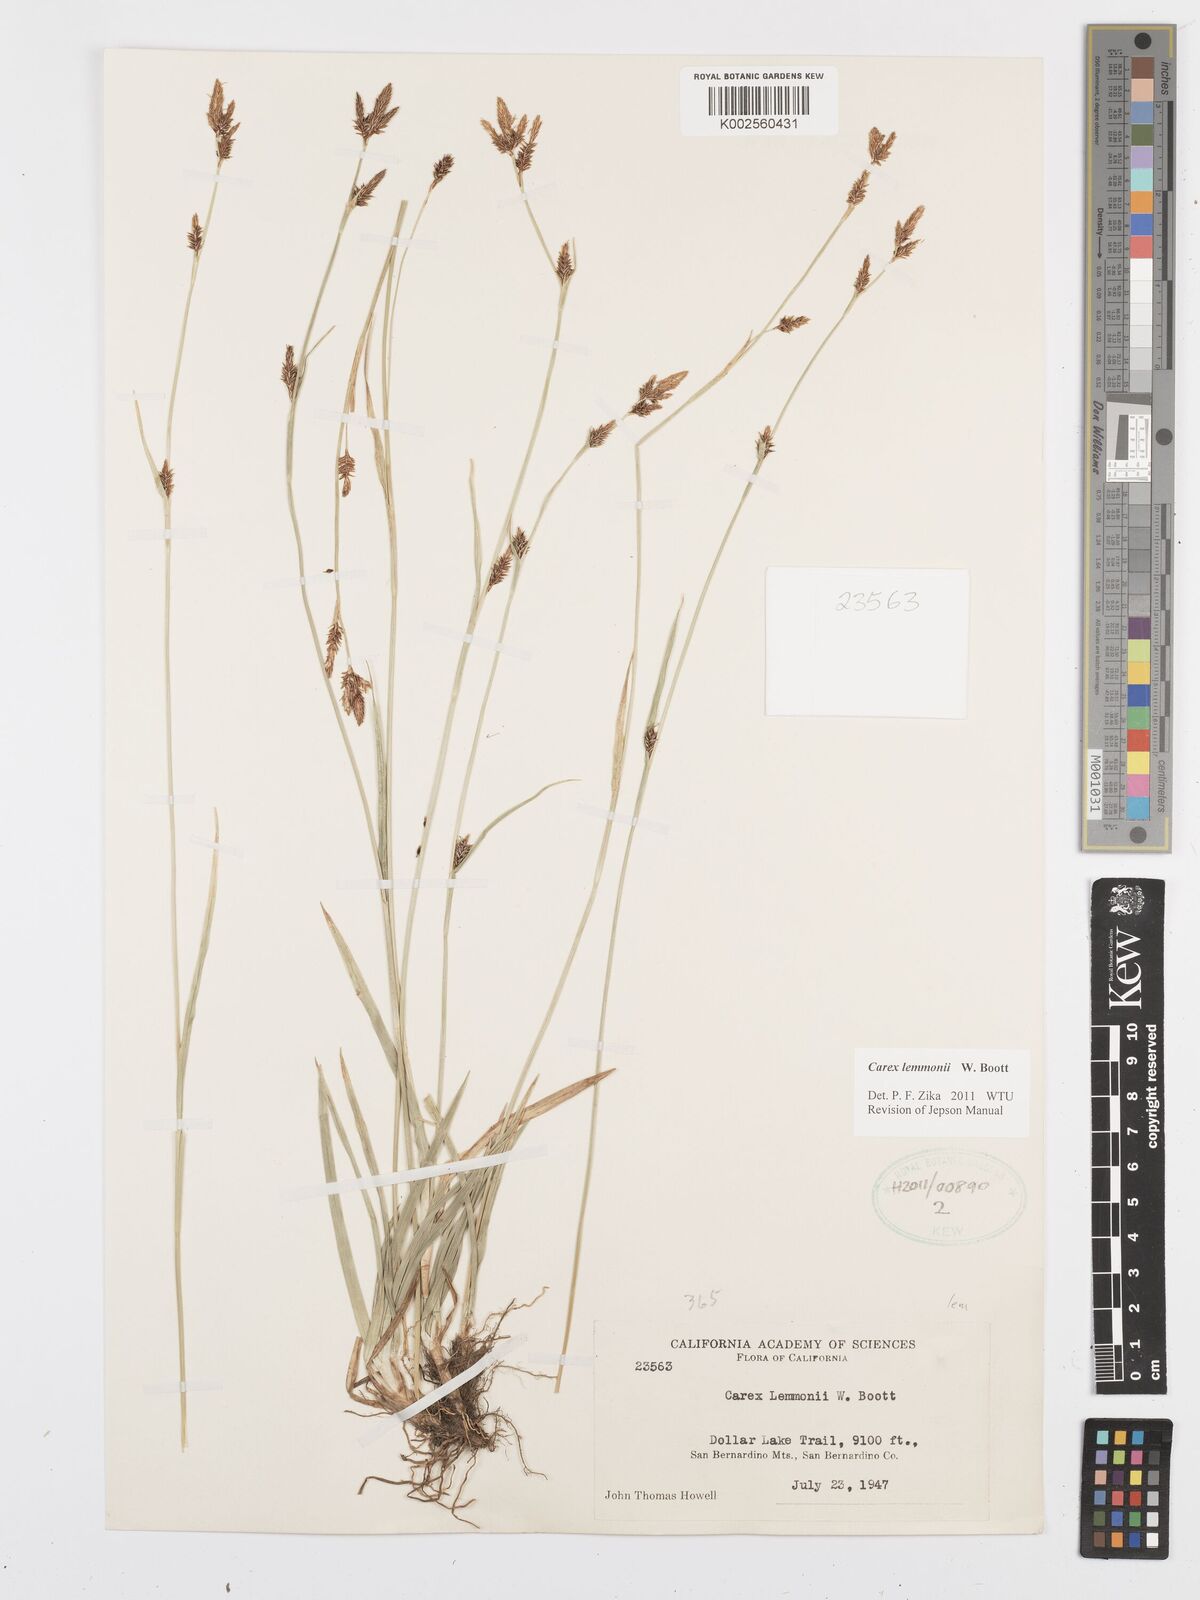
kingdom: Plantae
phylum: Tracheophyta
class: Liliopsida
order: Poales
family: Cyperaceae
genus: Carex
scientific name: Carex lemmonii
